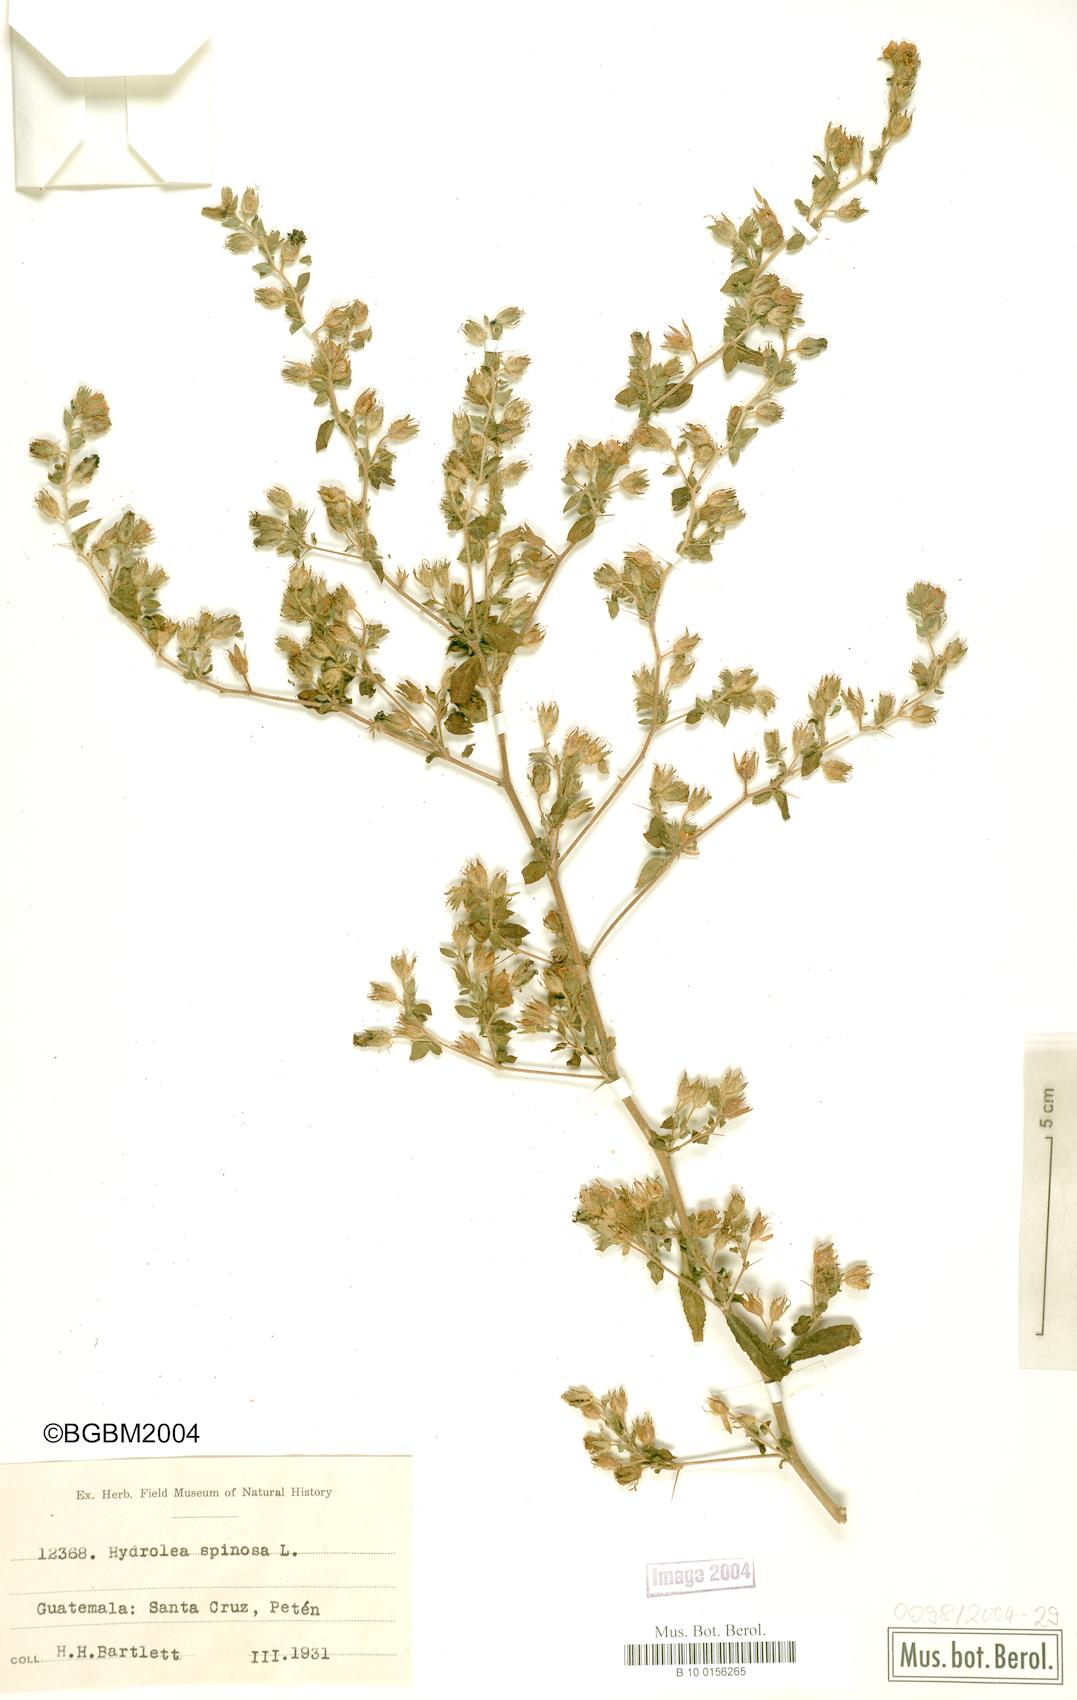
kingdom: Plantae
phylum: Tracheophyta
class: Magnoliopsida
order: Solanales
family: Hydroleaceae
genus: Hydrolea
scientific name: Hydrolea spinosa
